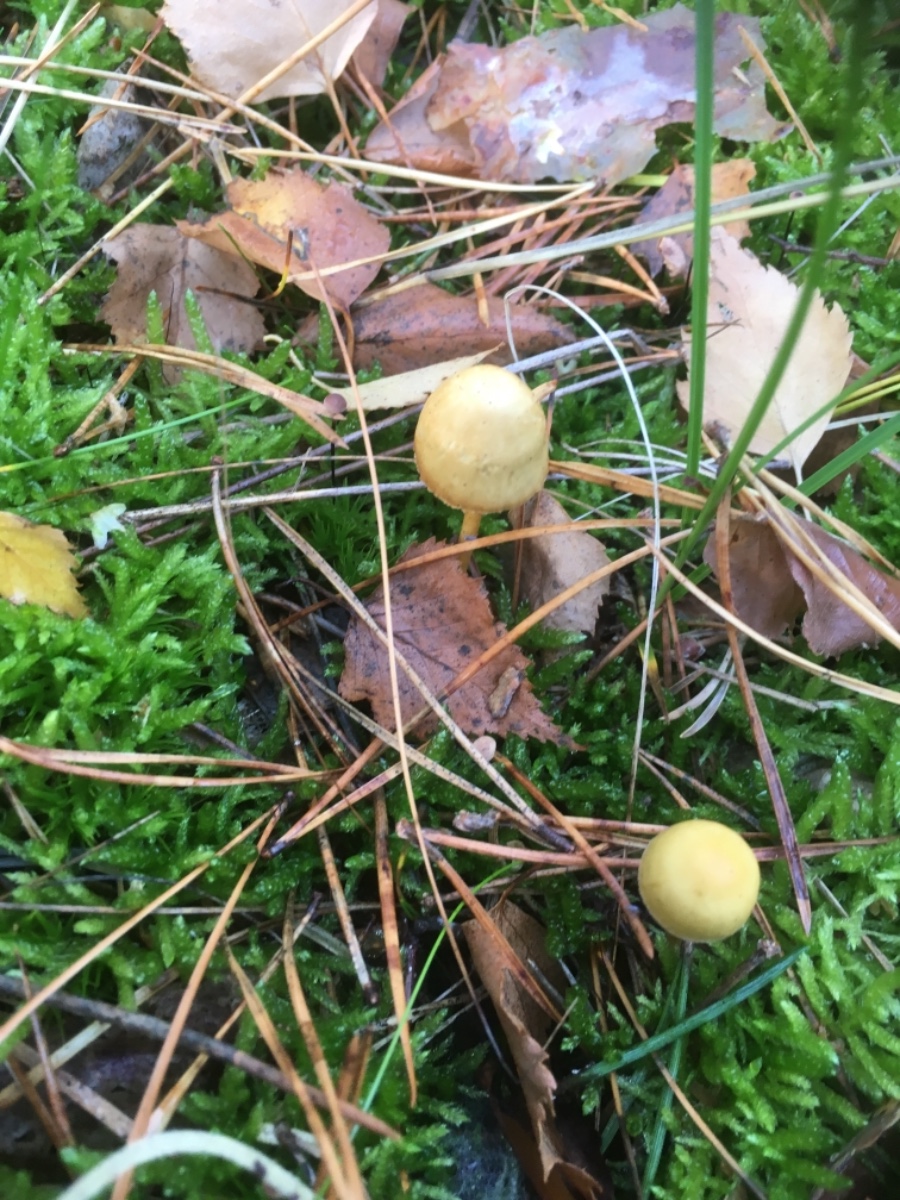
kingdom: Fungi
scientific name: Fungi
